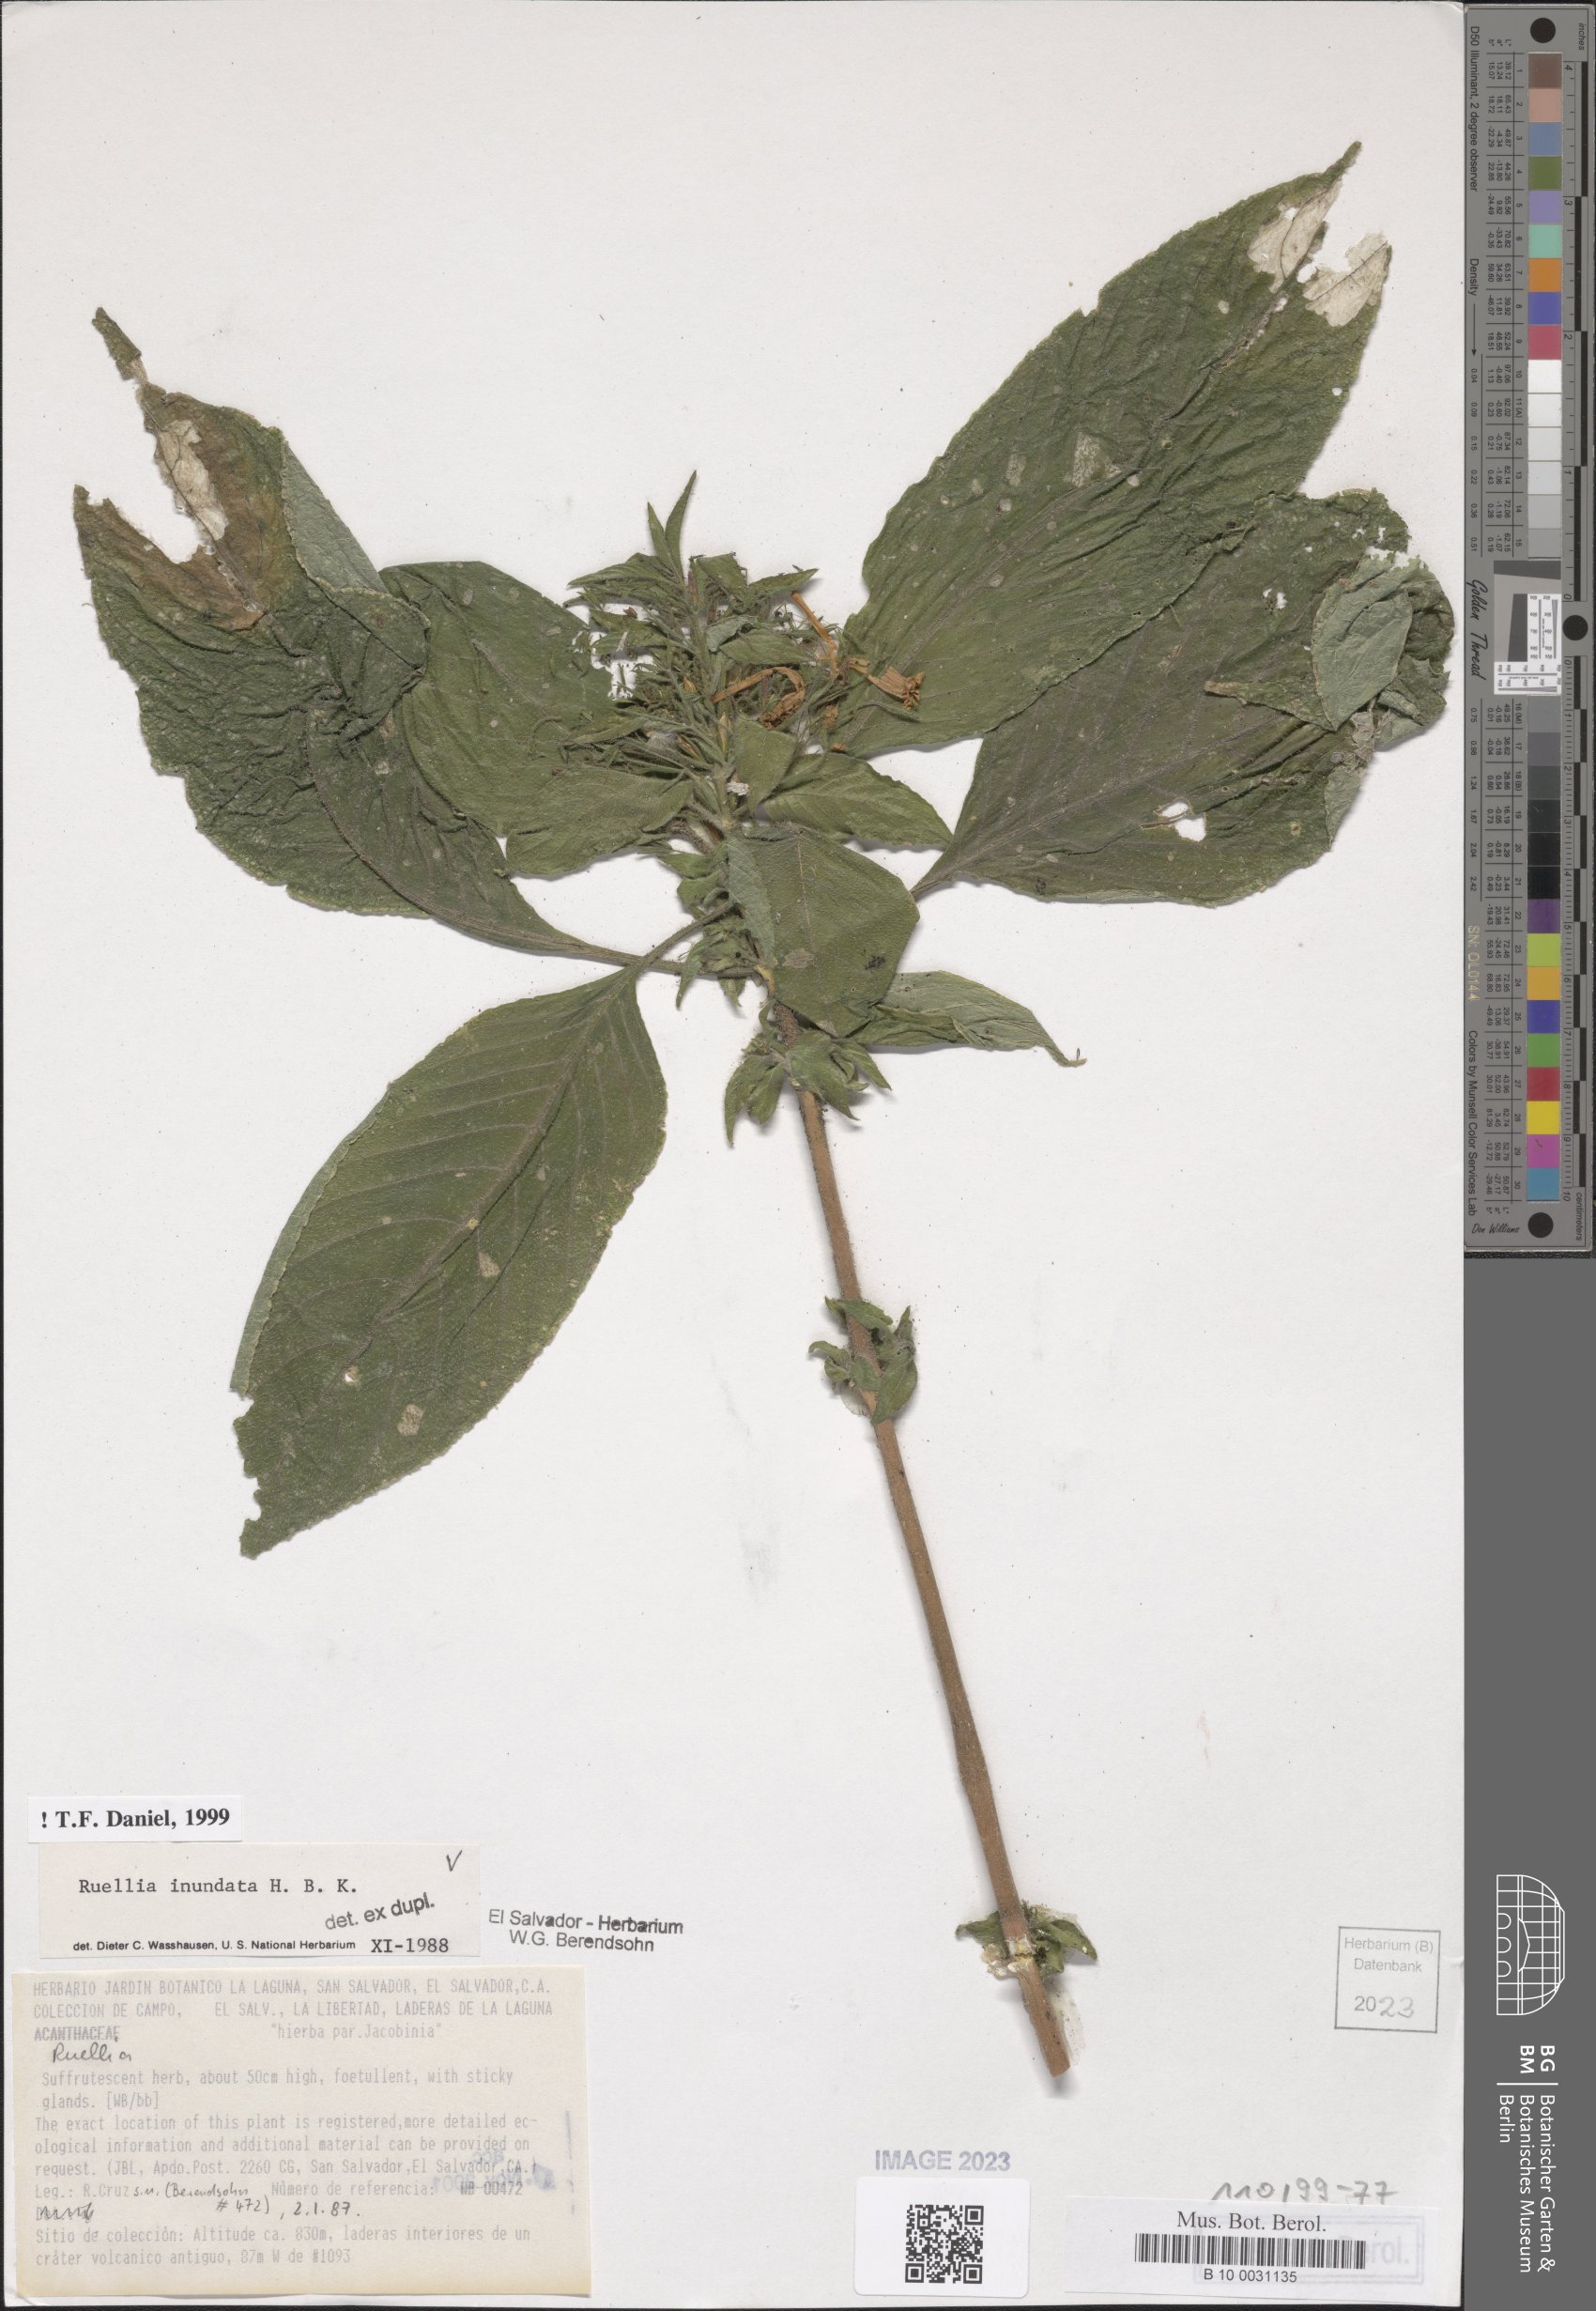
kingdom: Plantae
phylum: Tracheophyta
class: Magnoliopsida
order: Lamiales
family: Acanthaceae
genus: Ruellia
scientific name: Ruellia inundata
